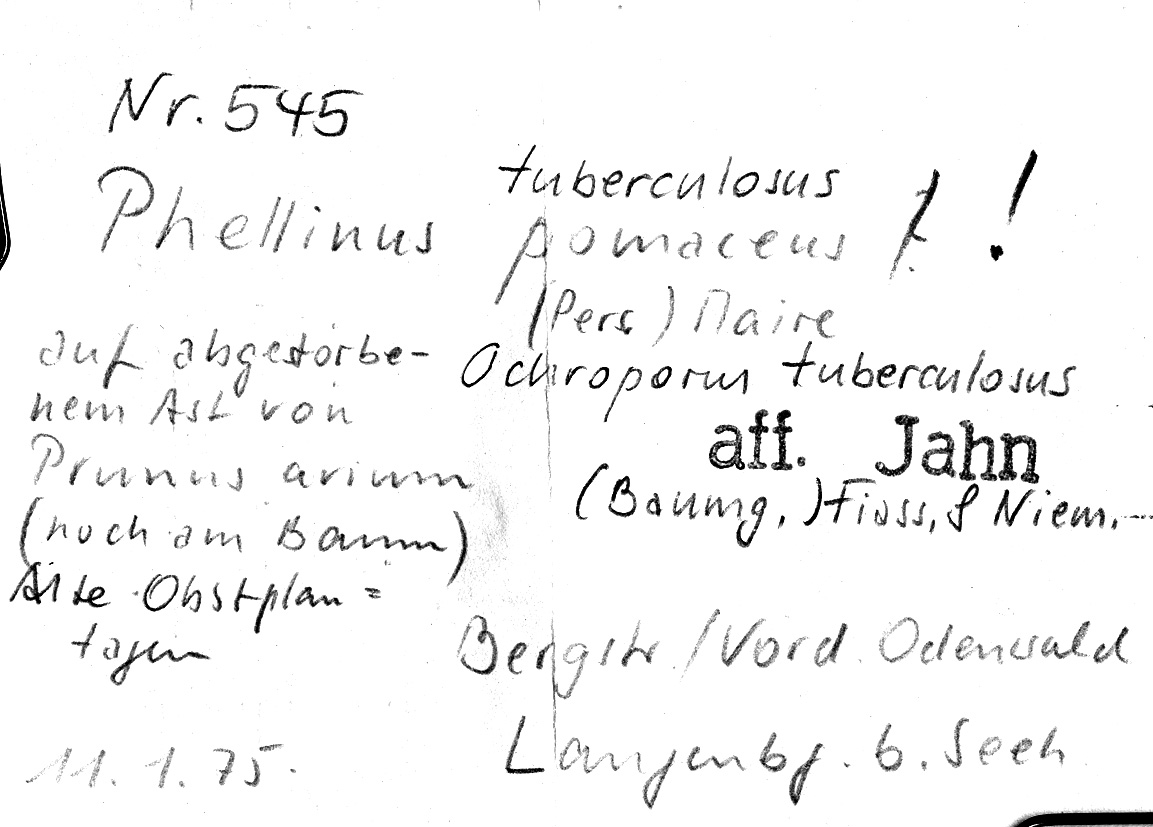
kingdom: Plantae
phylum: Tracheophyta
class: Magnoliopsida
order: Rosales
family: Rosaceae
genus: Prunus
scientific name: Prunus avium
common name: Sweet cherry
